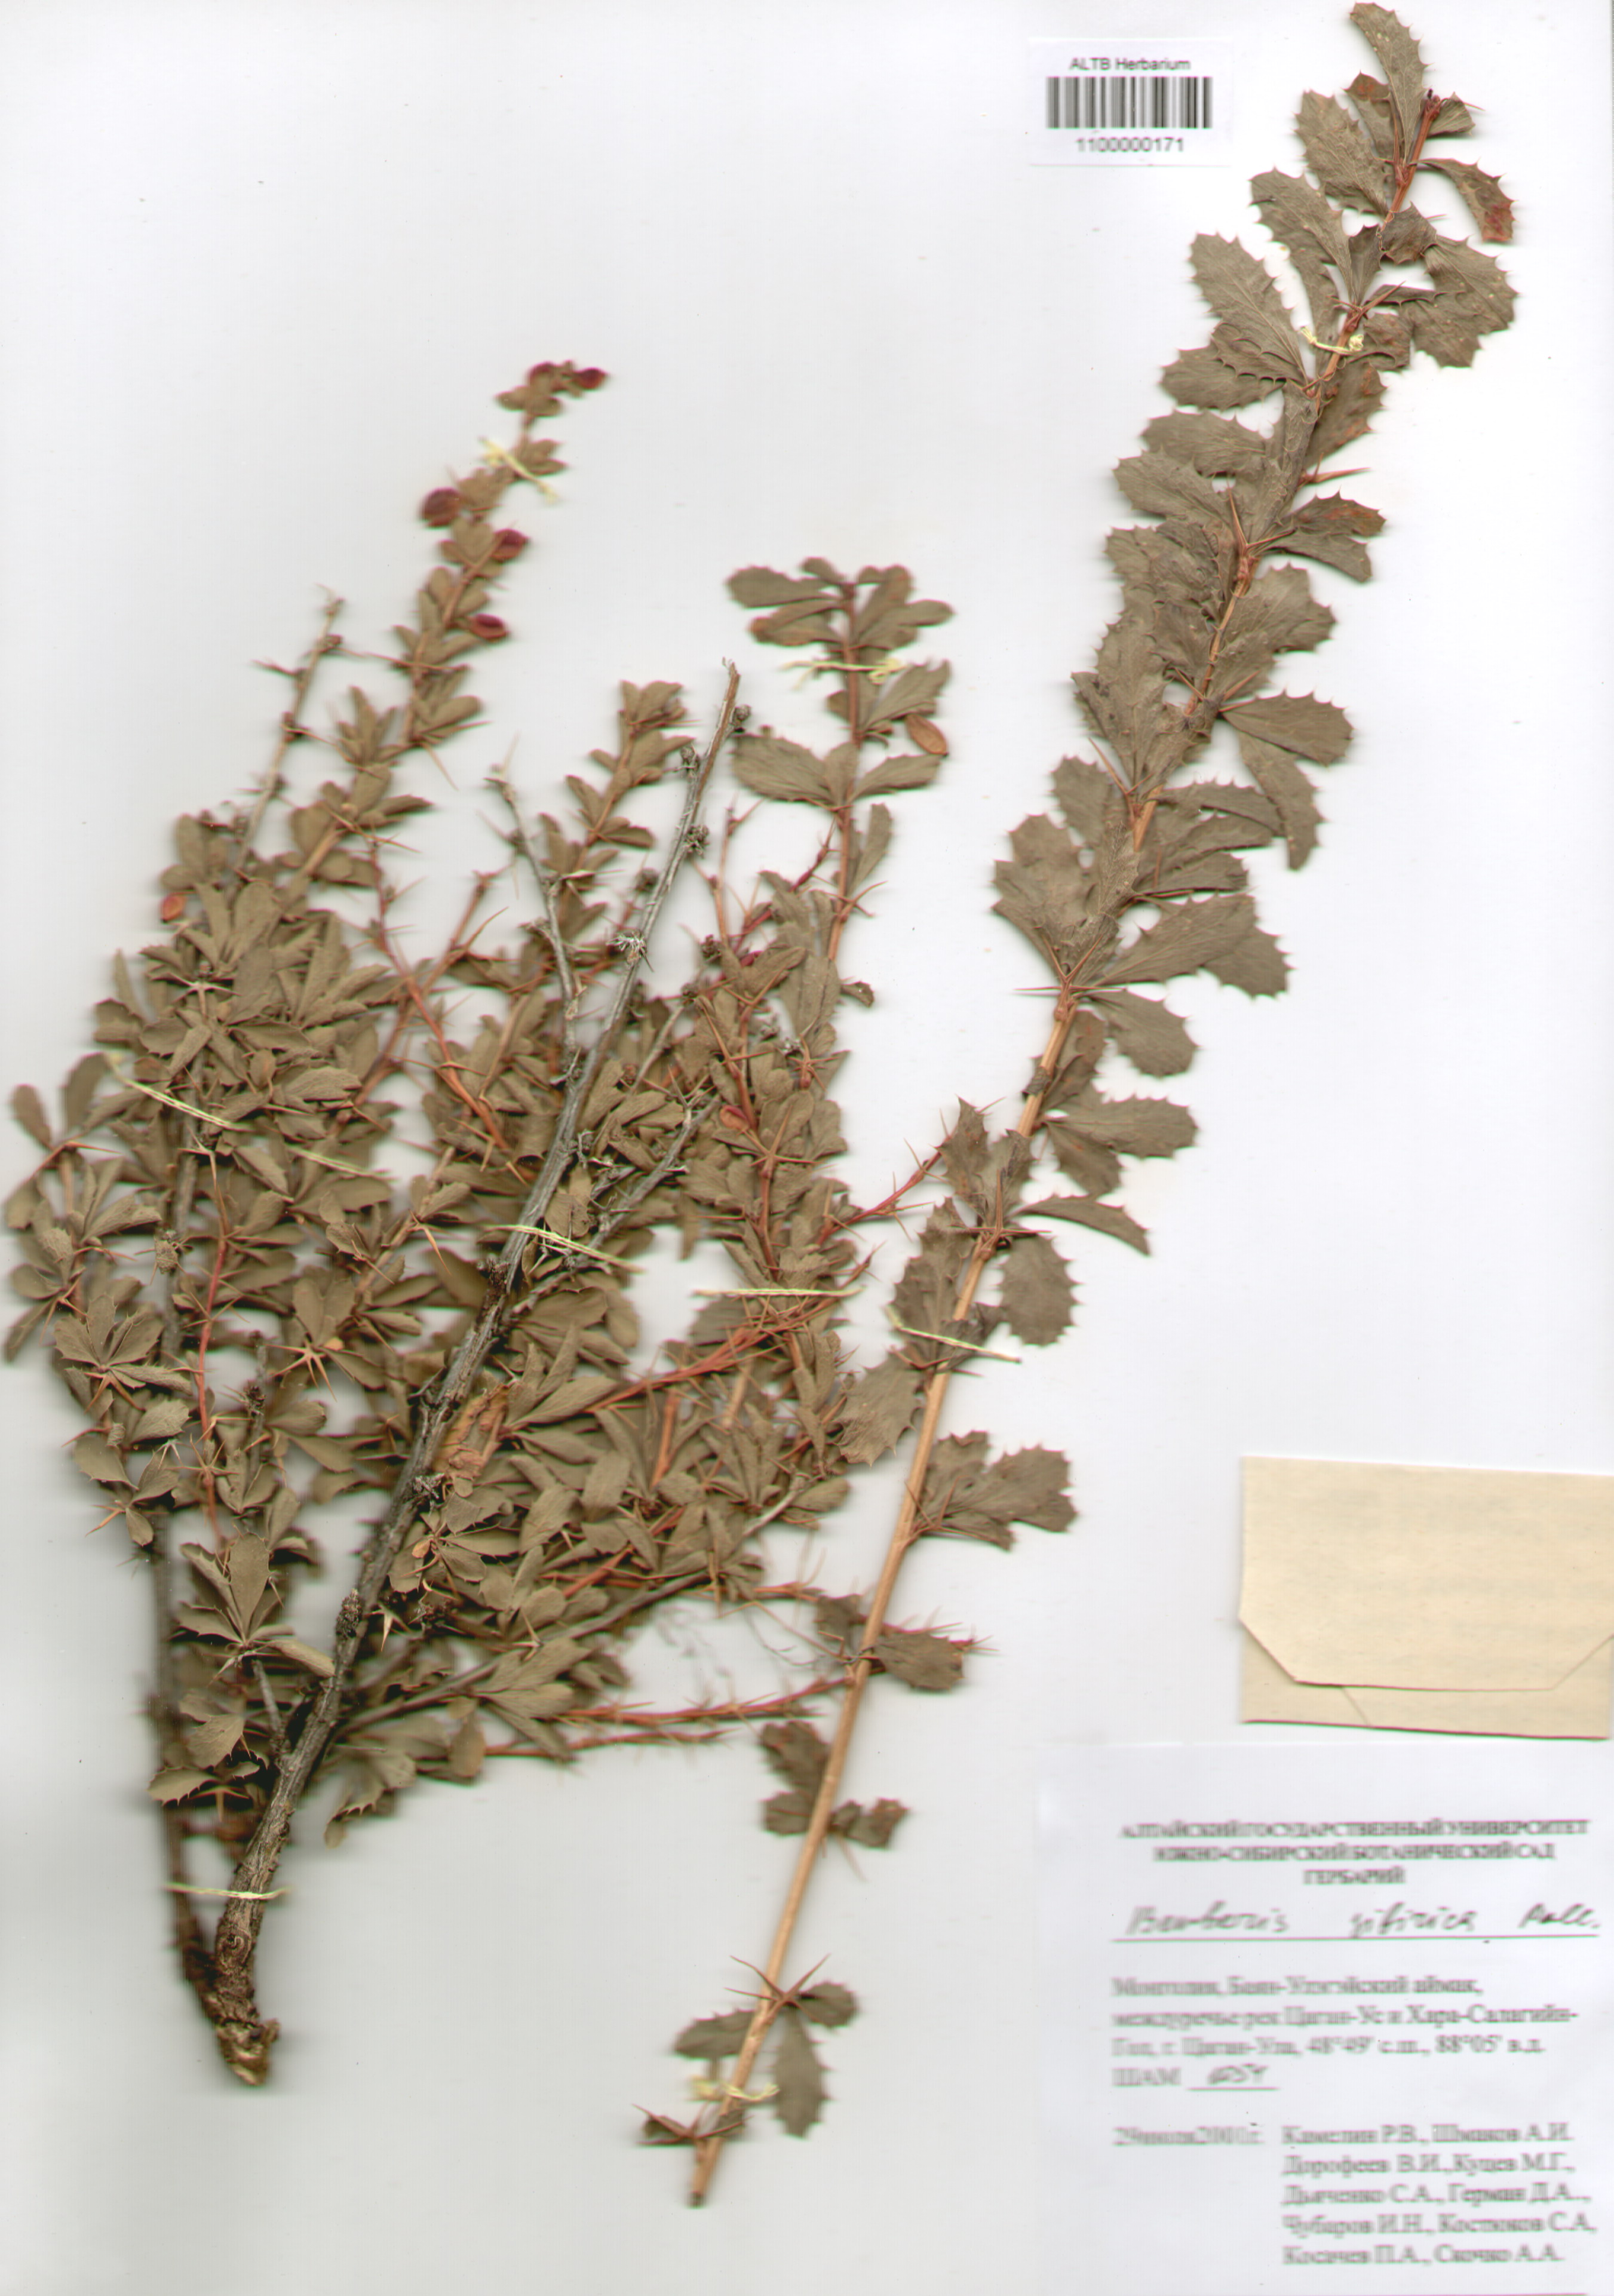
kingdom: Plantae
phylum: Tracheophyta
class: Magnoliopsida
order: Ranunculales
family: Berberidaceae
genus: Berberis
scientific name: Berberis sibirica
